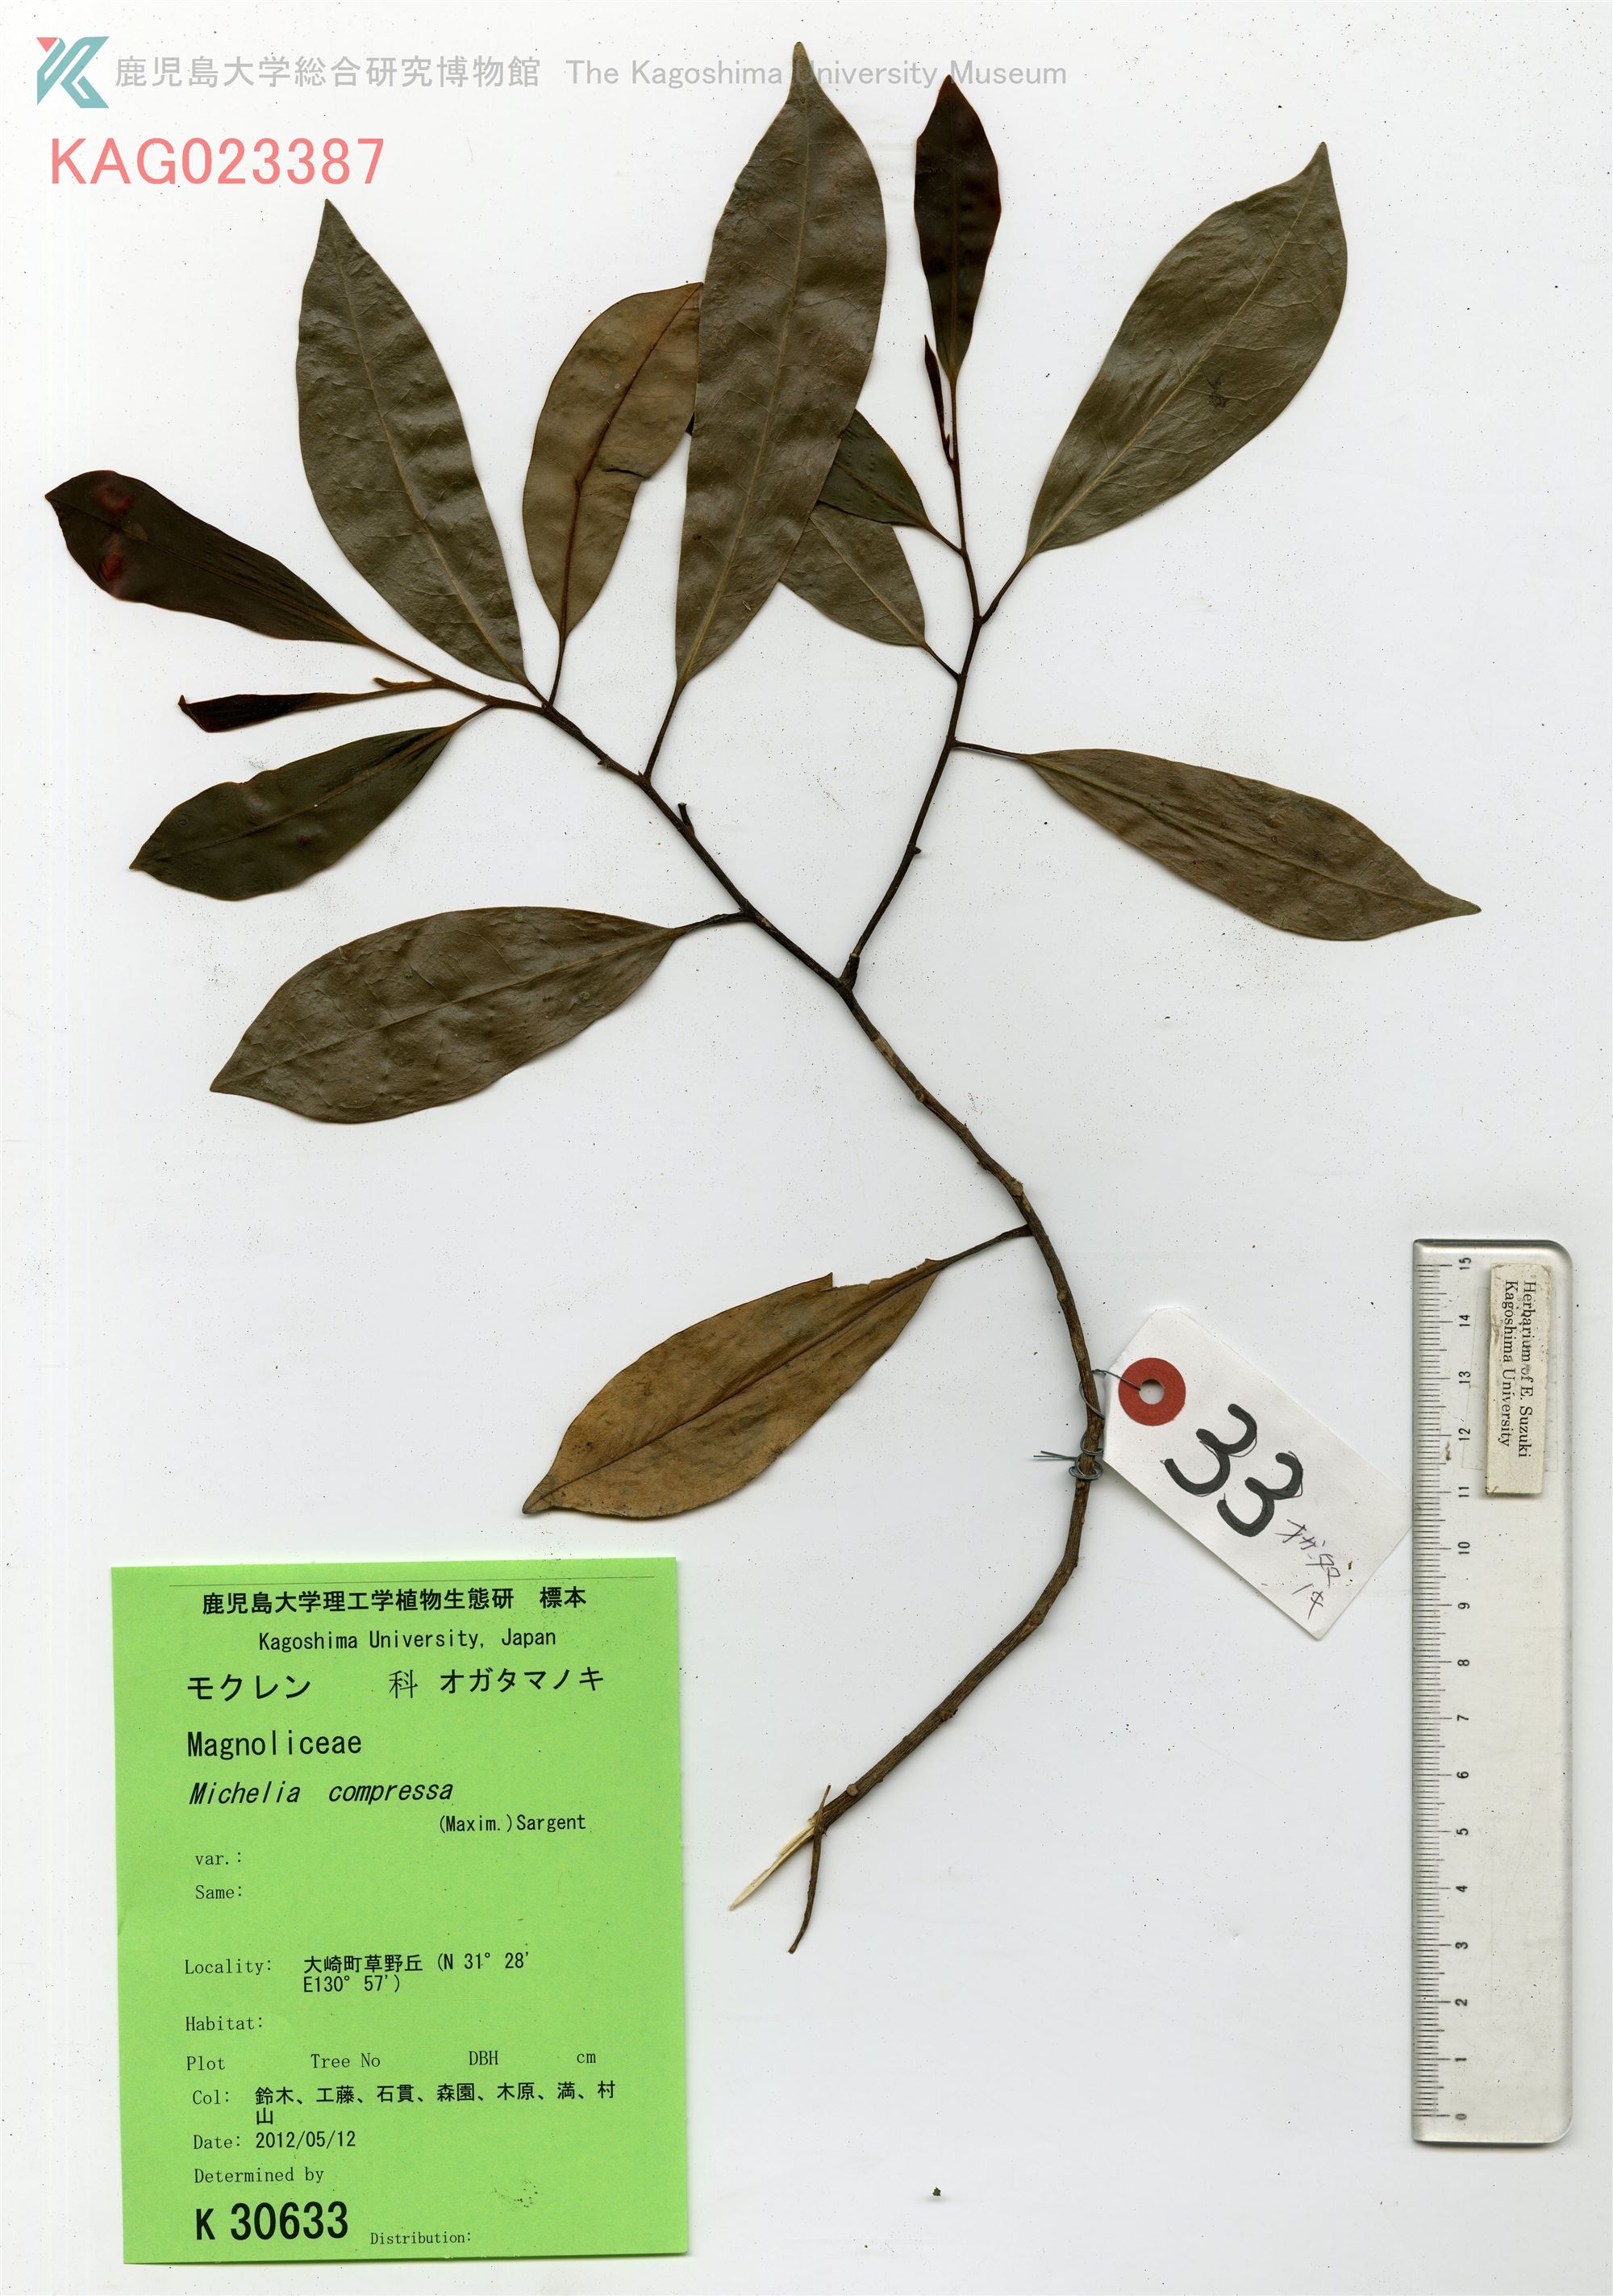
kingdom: Plantae
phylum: Tracheophyta
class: Magnoliopsida
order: Magnoliales
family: Magnoliaceae
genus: Magnolia
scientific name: Magnolia compressa
